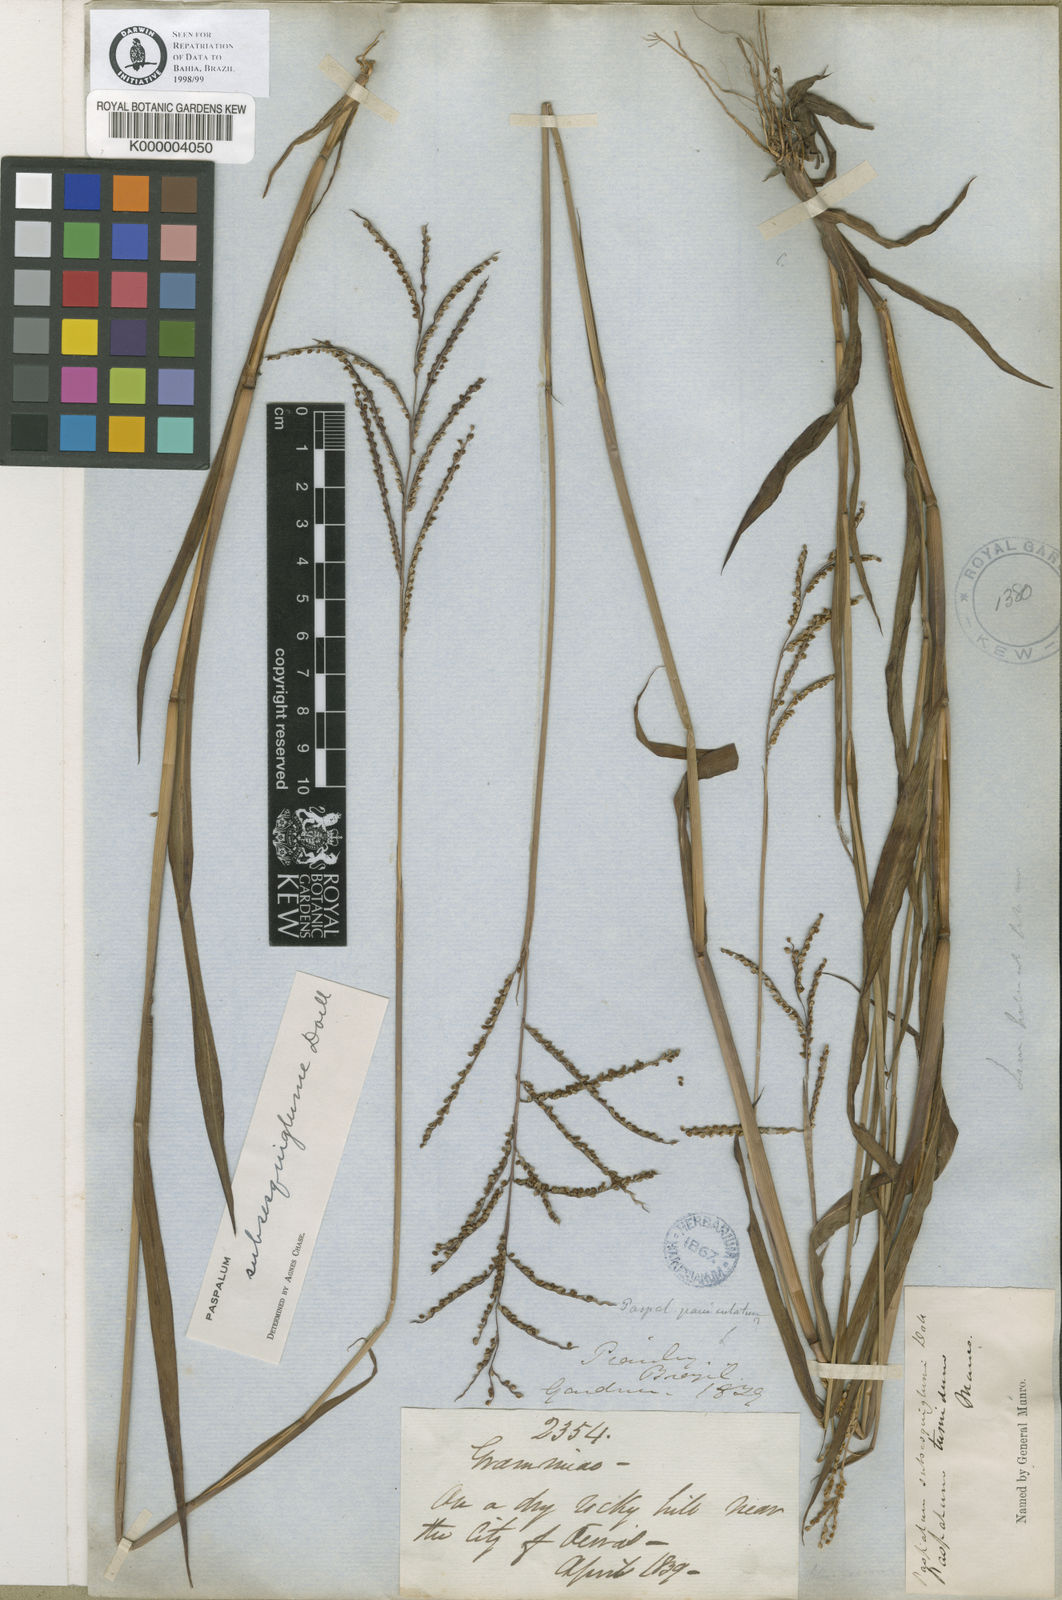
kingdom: Plantae
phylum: Tracheophyta
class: Liliopsida
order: Poales
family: Poaceae
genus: Paspalum
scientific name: Paspalum
